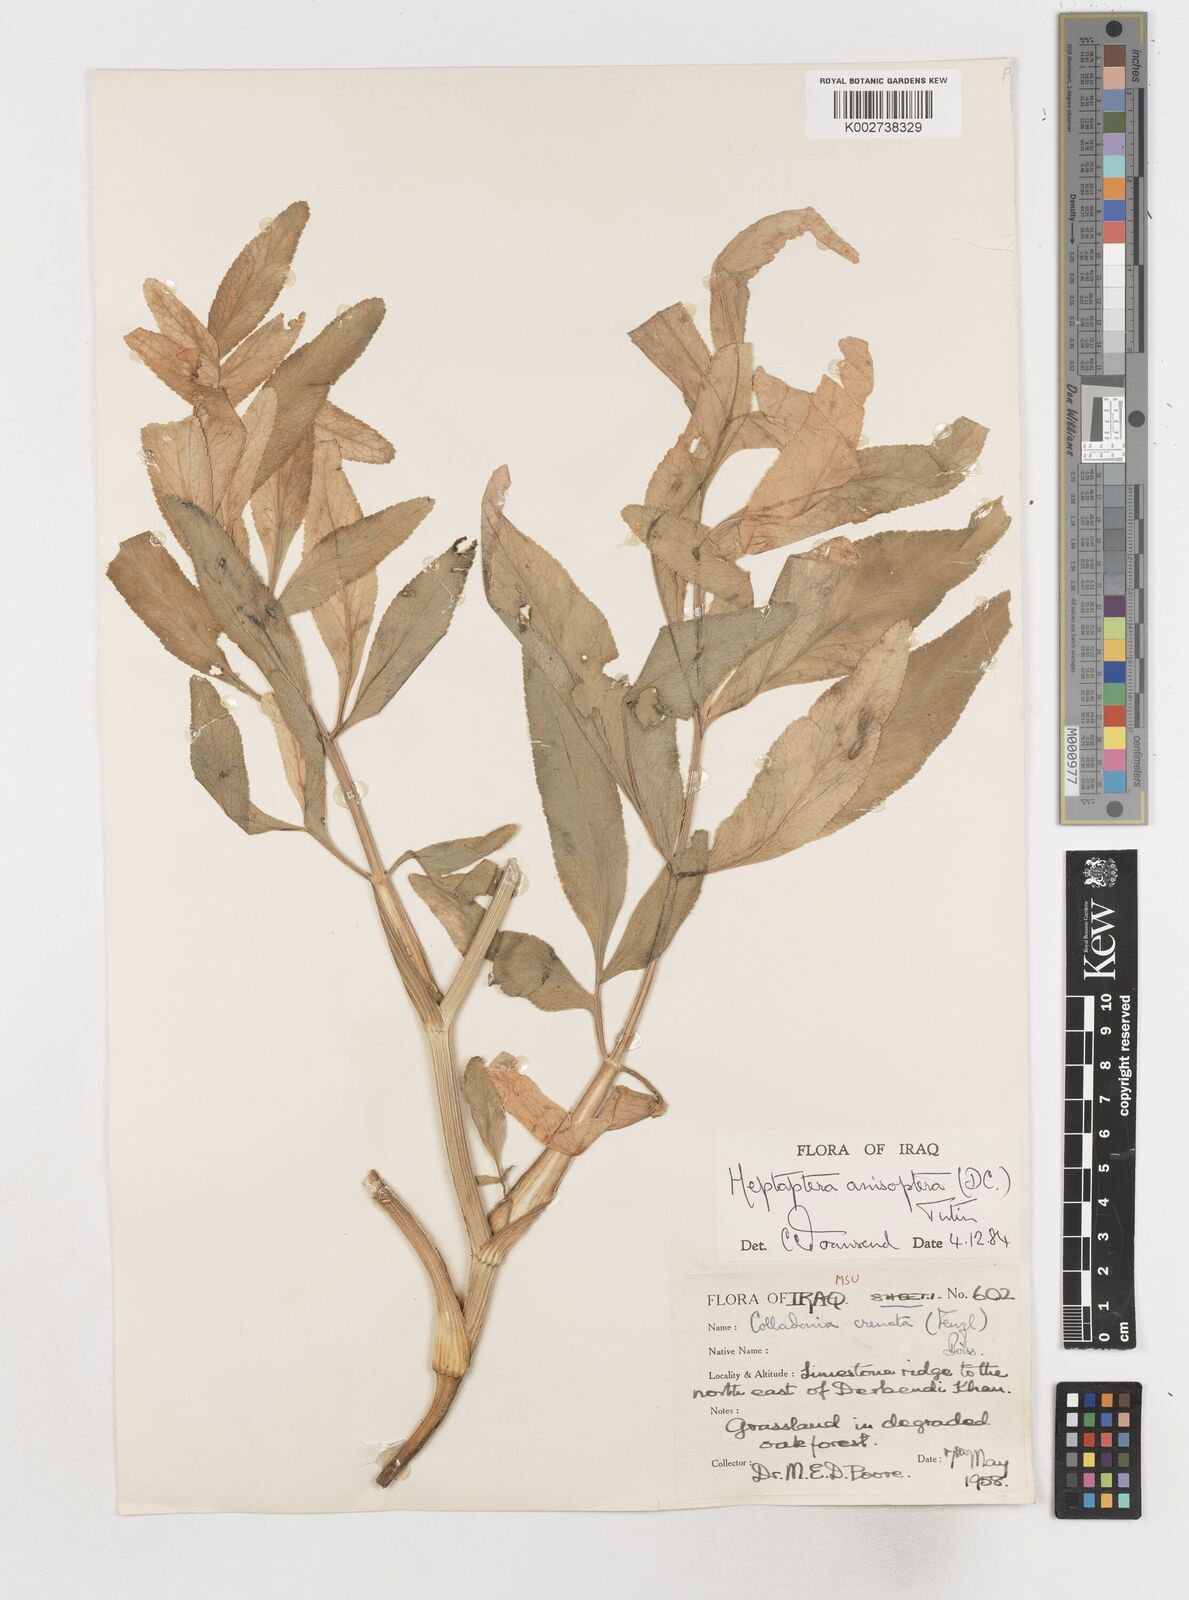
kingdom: Plantae
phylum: Tracheophyta
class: Magnoliopsida
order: Apiales
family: Apiaceae
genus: Heptaptera
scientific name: Heptaptera
